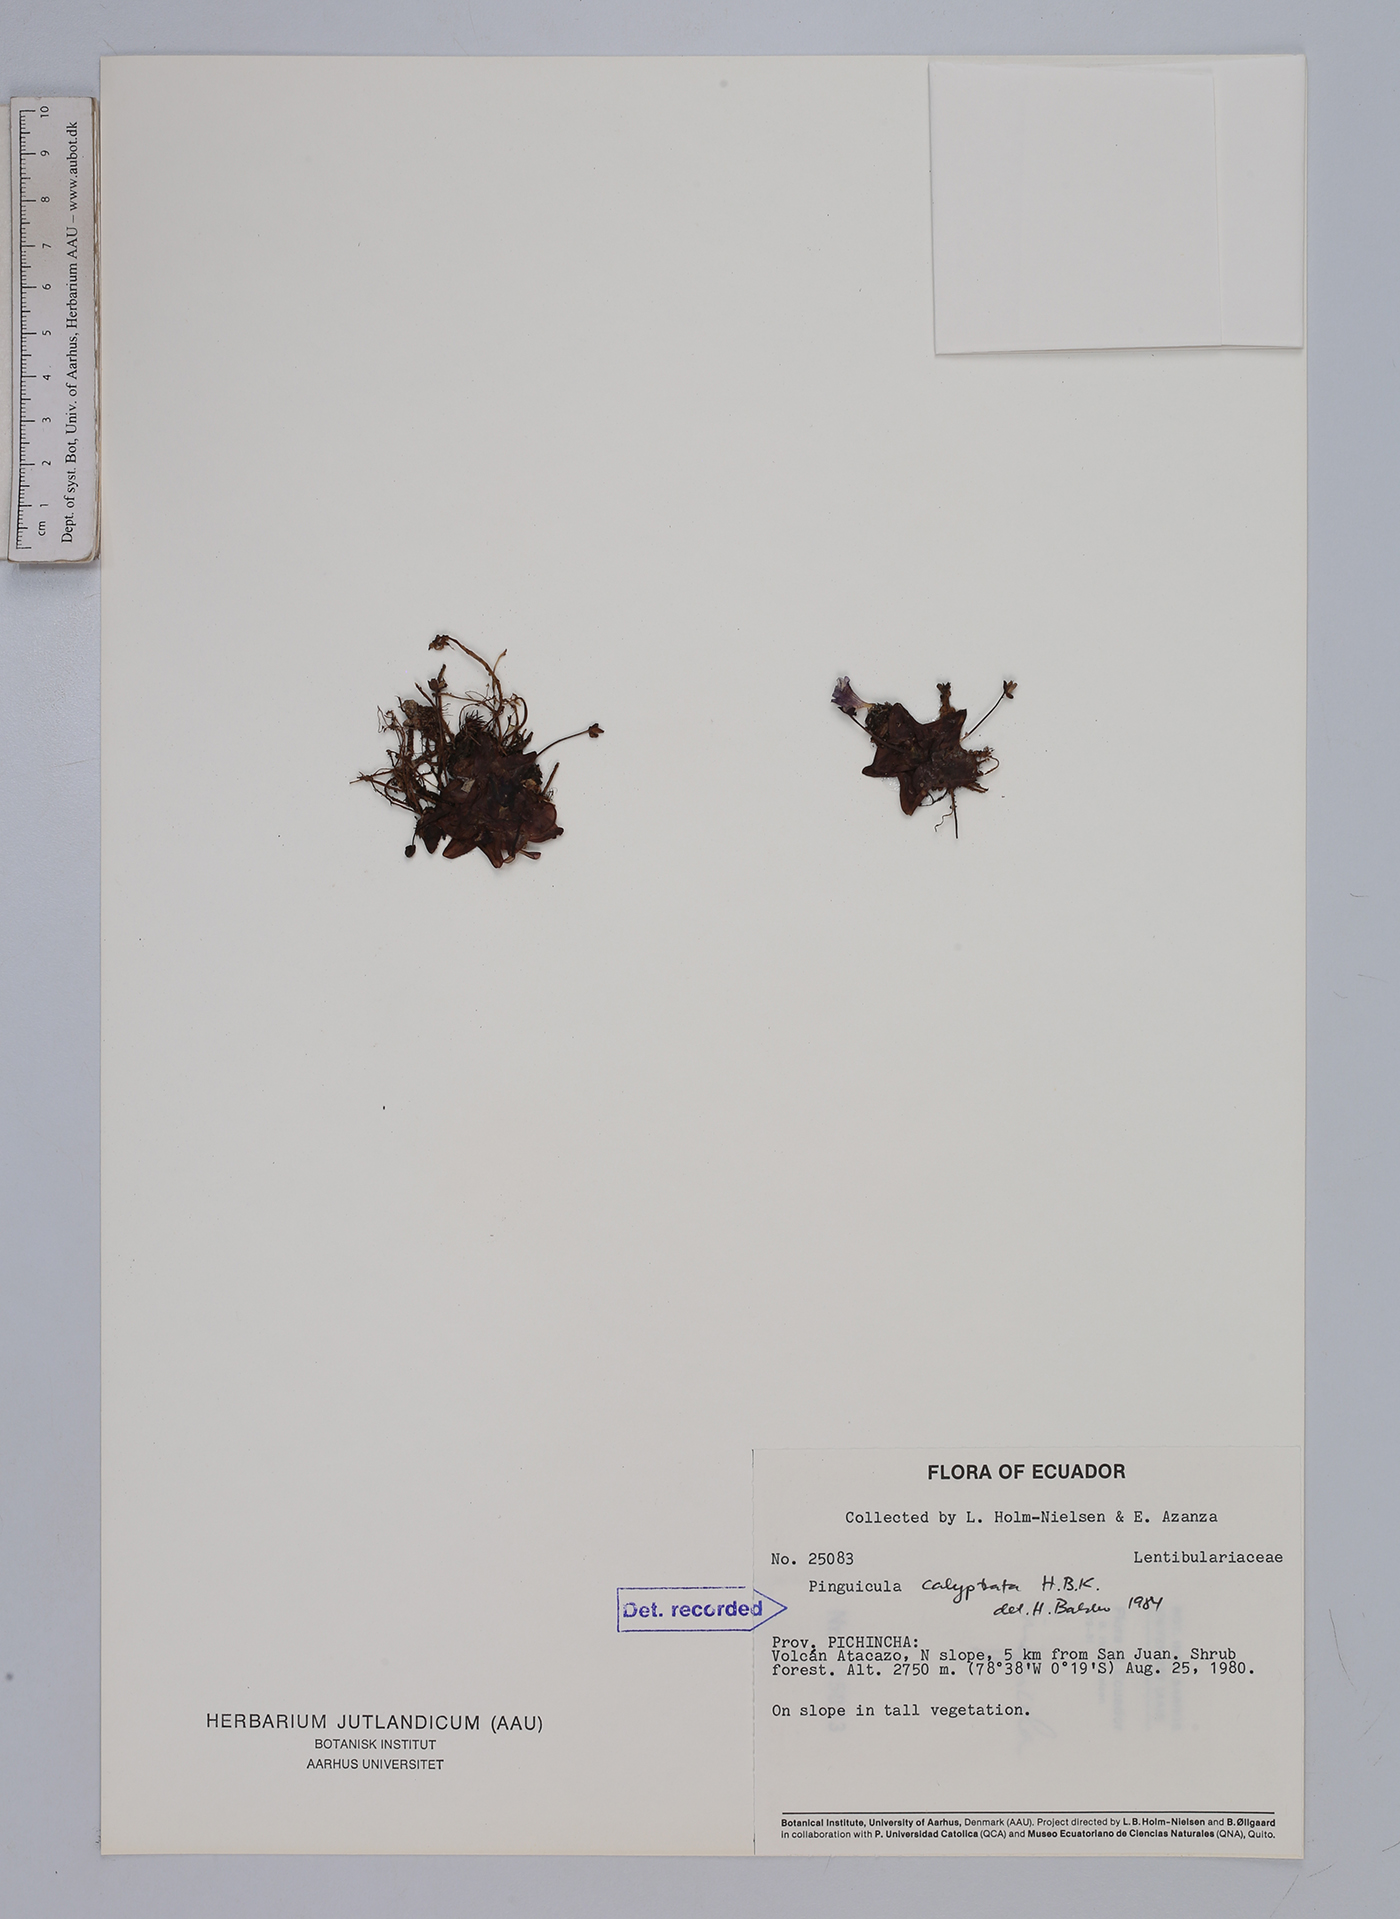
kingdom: Plantae
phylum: Tracheophyta
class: Magnoliopsida
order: Lamiales
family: Lentibulariaceae
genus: Pinguicula
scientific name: Pinguicula calyptrata
